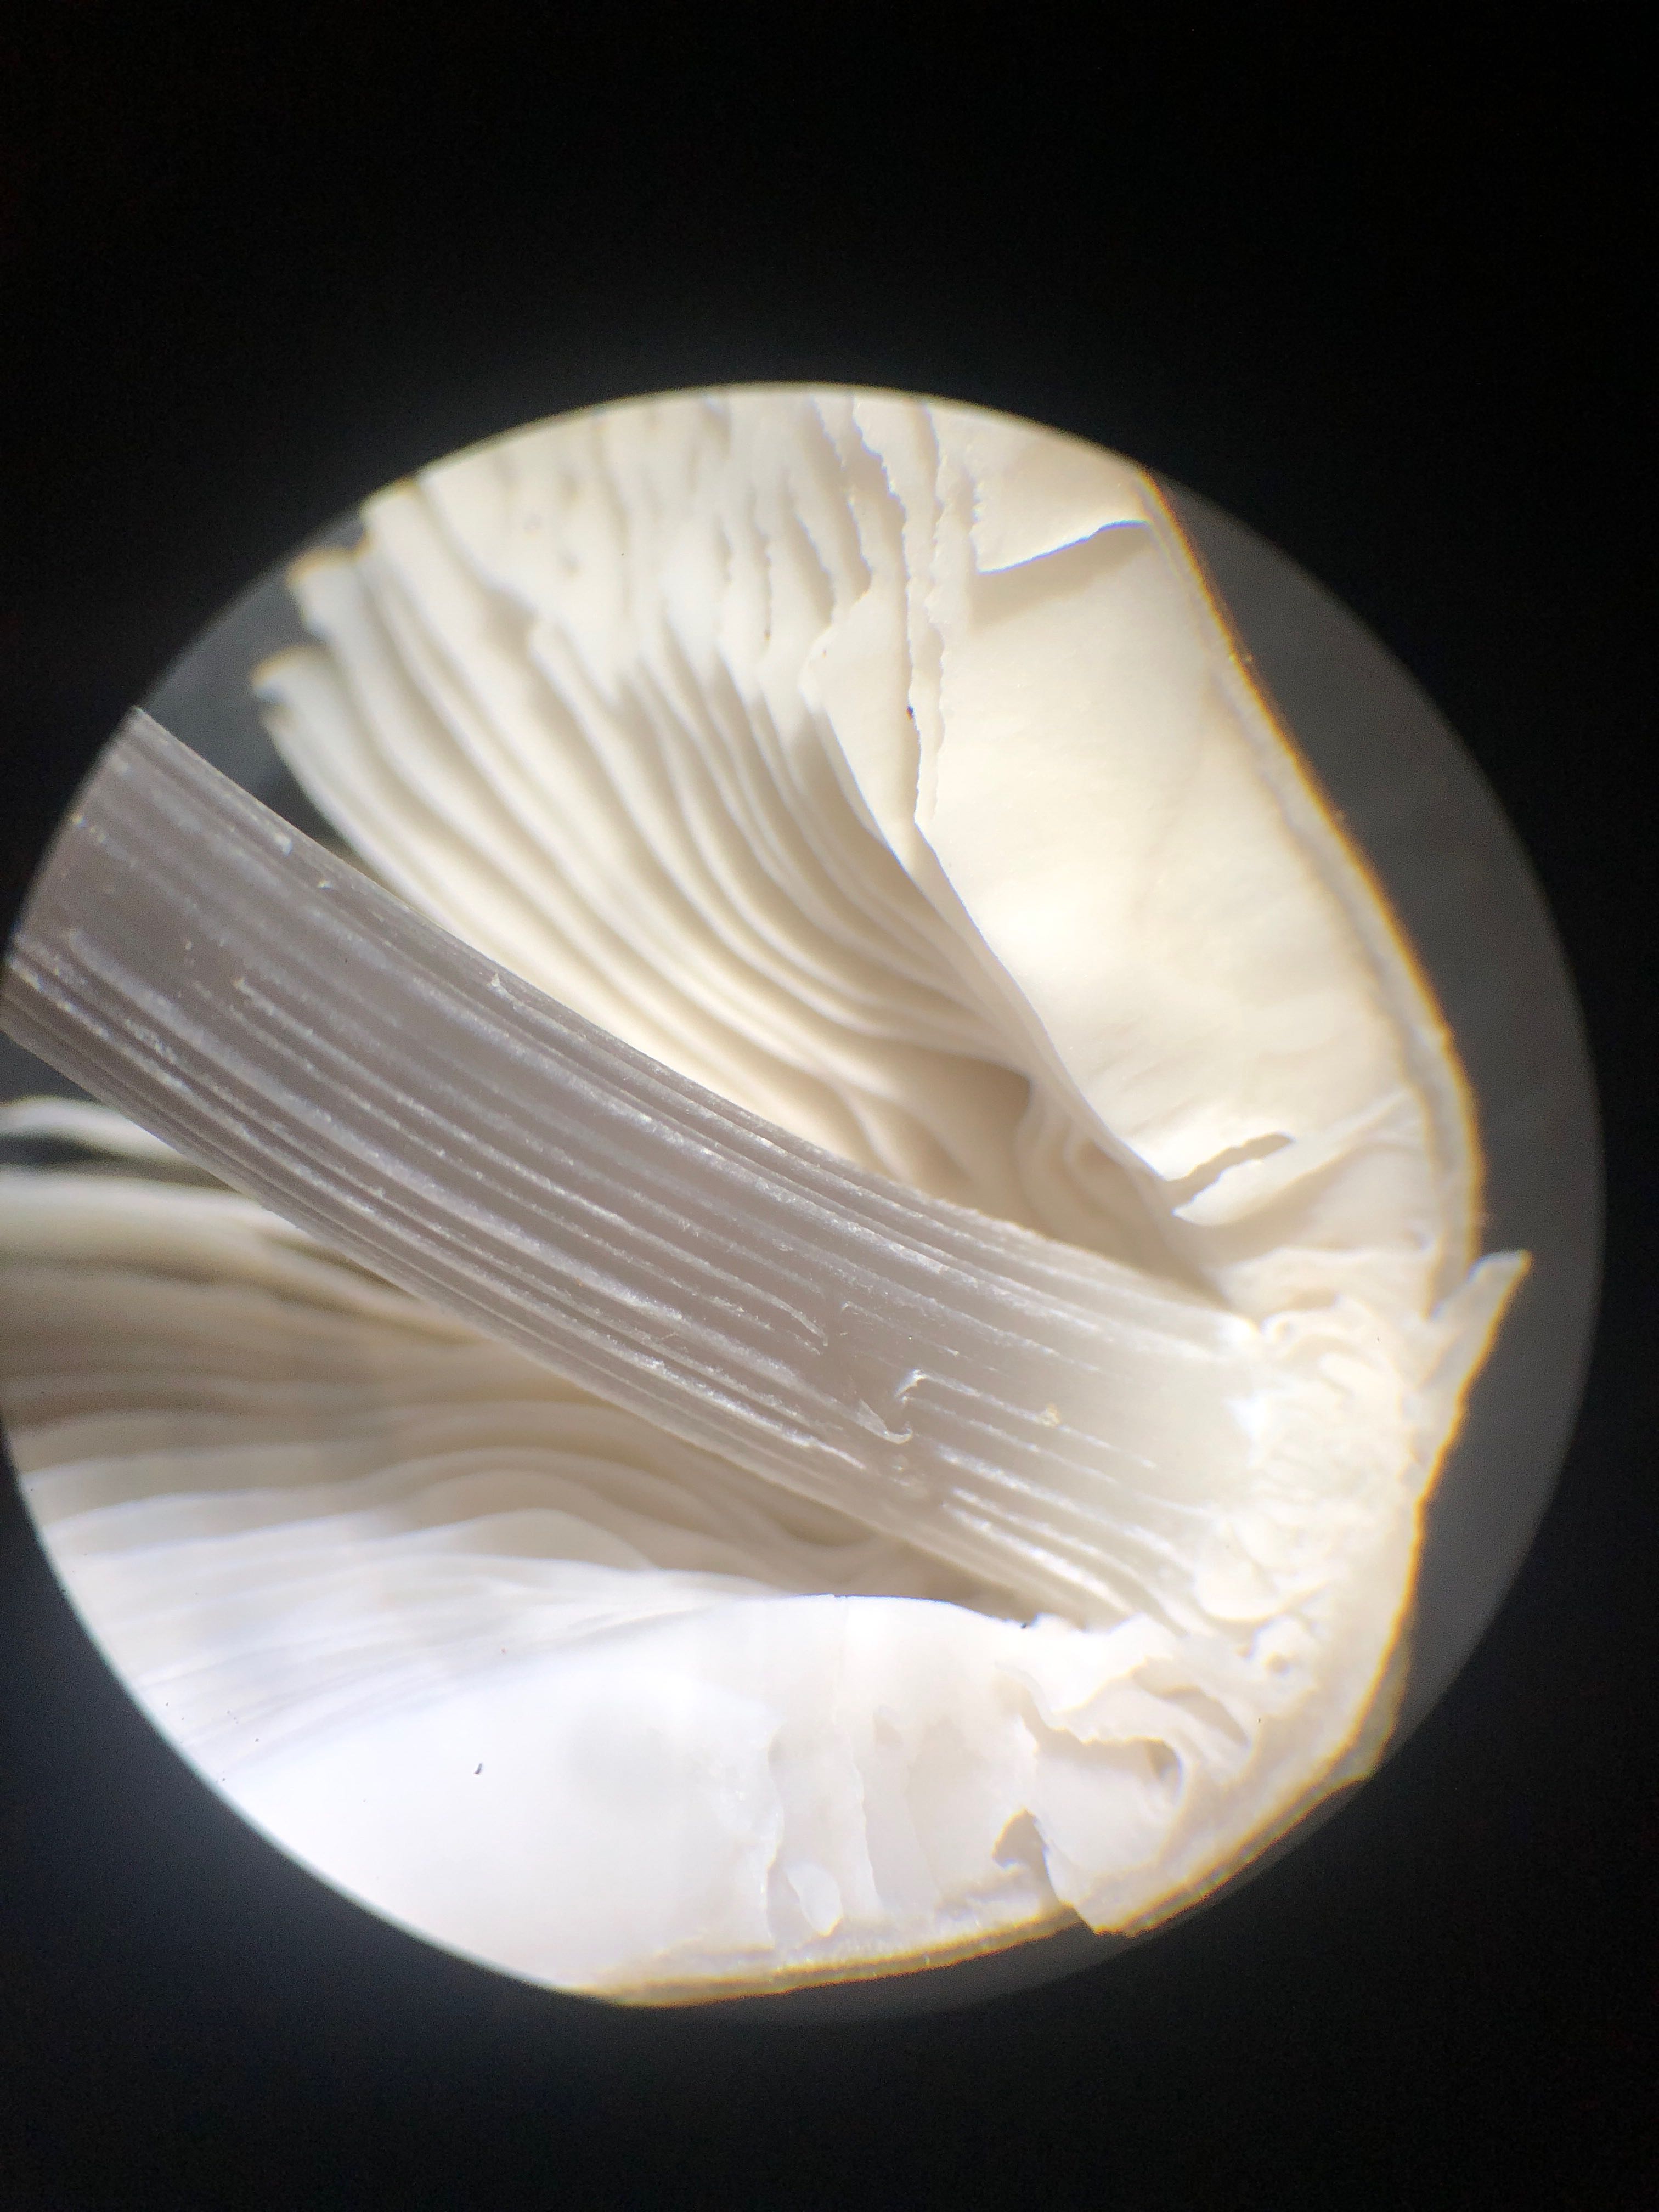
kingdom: Fungi
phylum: Basidiomycota
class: Agaricomycetes
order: Agaricales
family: Mycenaceae
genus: Mycena
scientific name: Mycena polygramma
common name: mangestribet huesvamp
